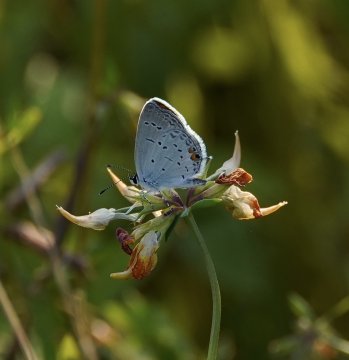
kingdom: Animalia
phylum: Arthropoda
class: Insecta
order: Lepidoptera
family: Lycaenidae
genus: Elkalyce
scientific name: Elkalyce comyntas
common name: Eastern Tailed-Blue
